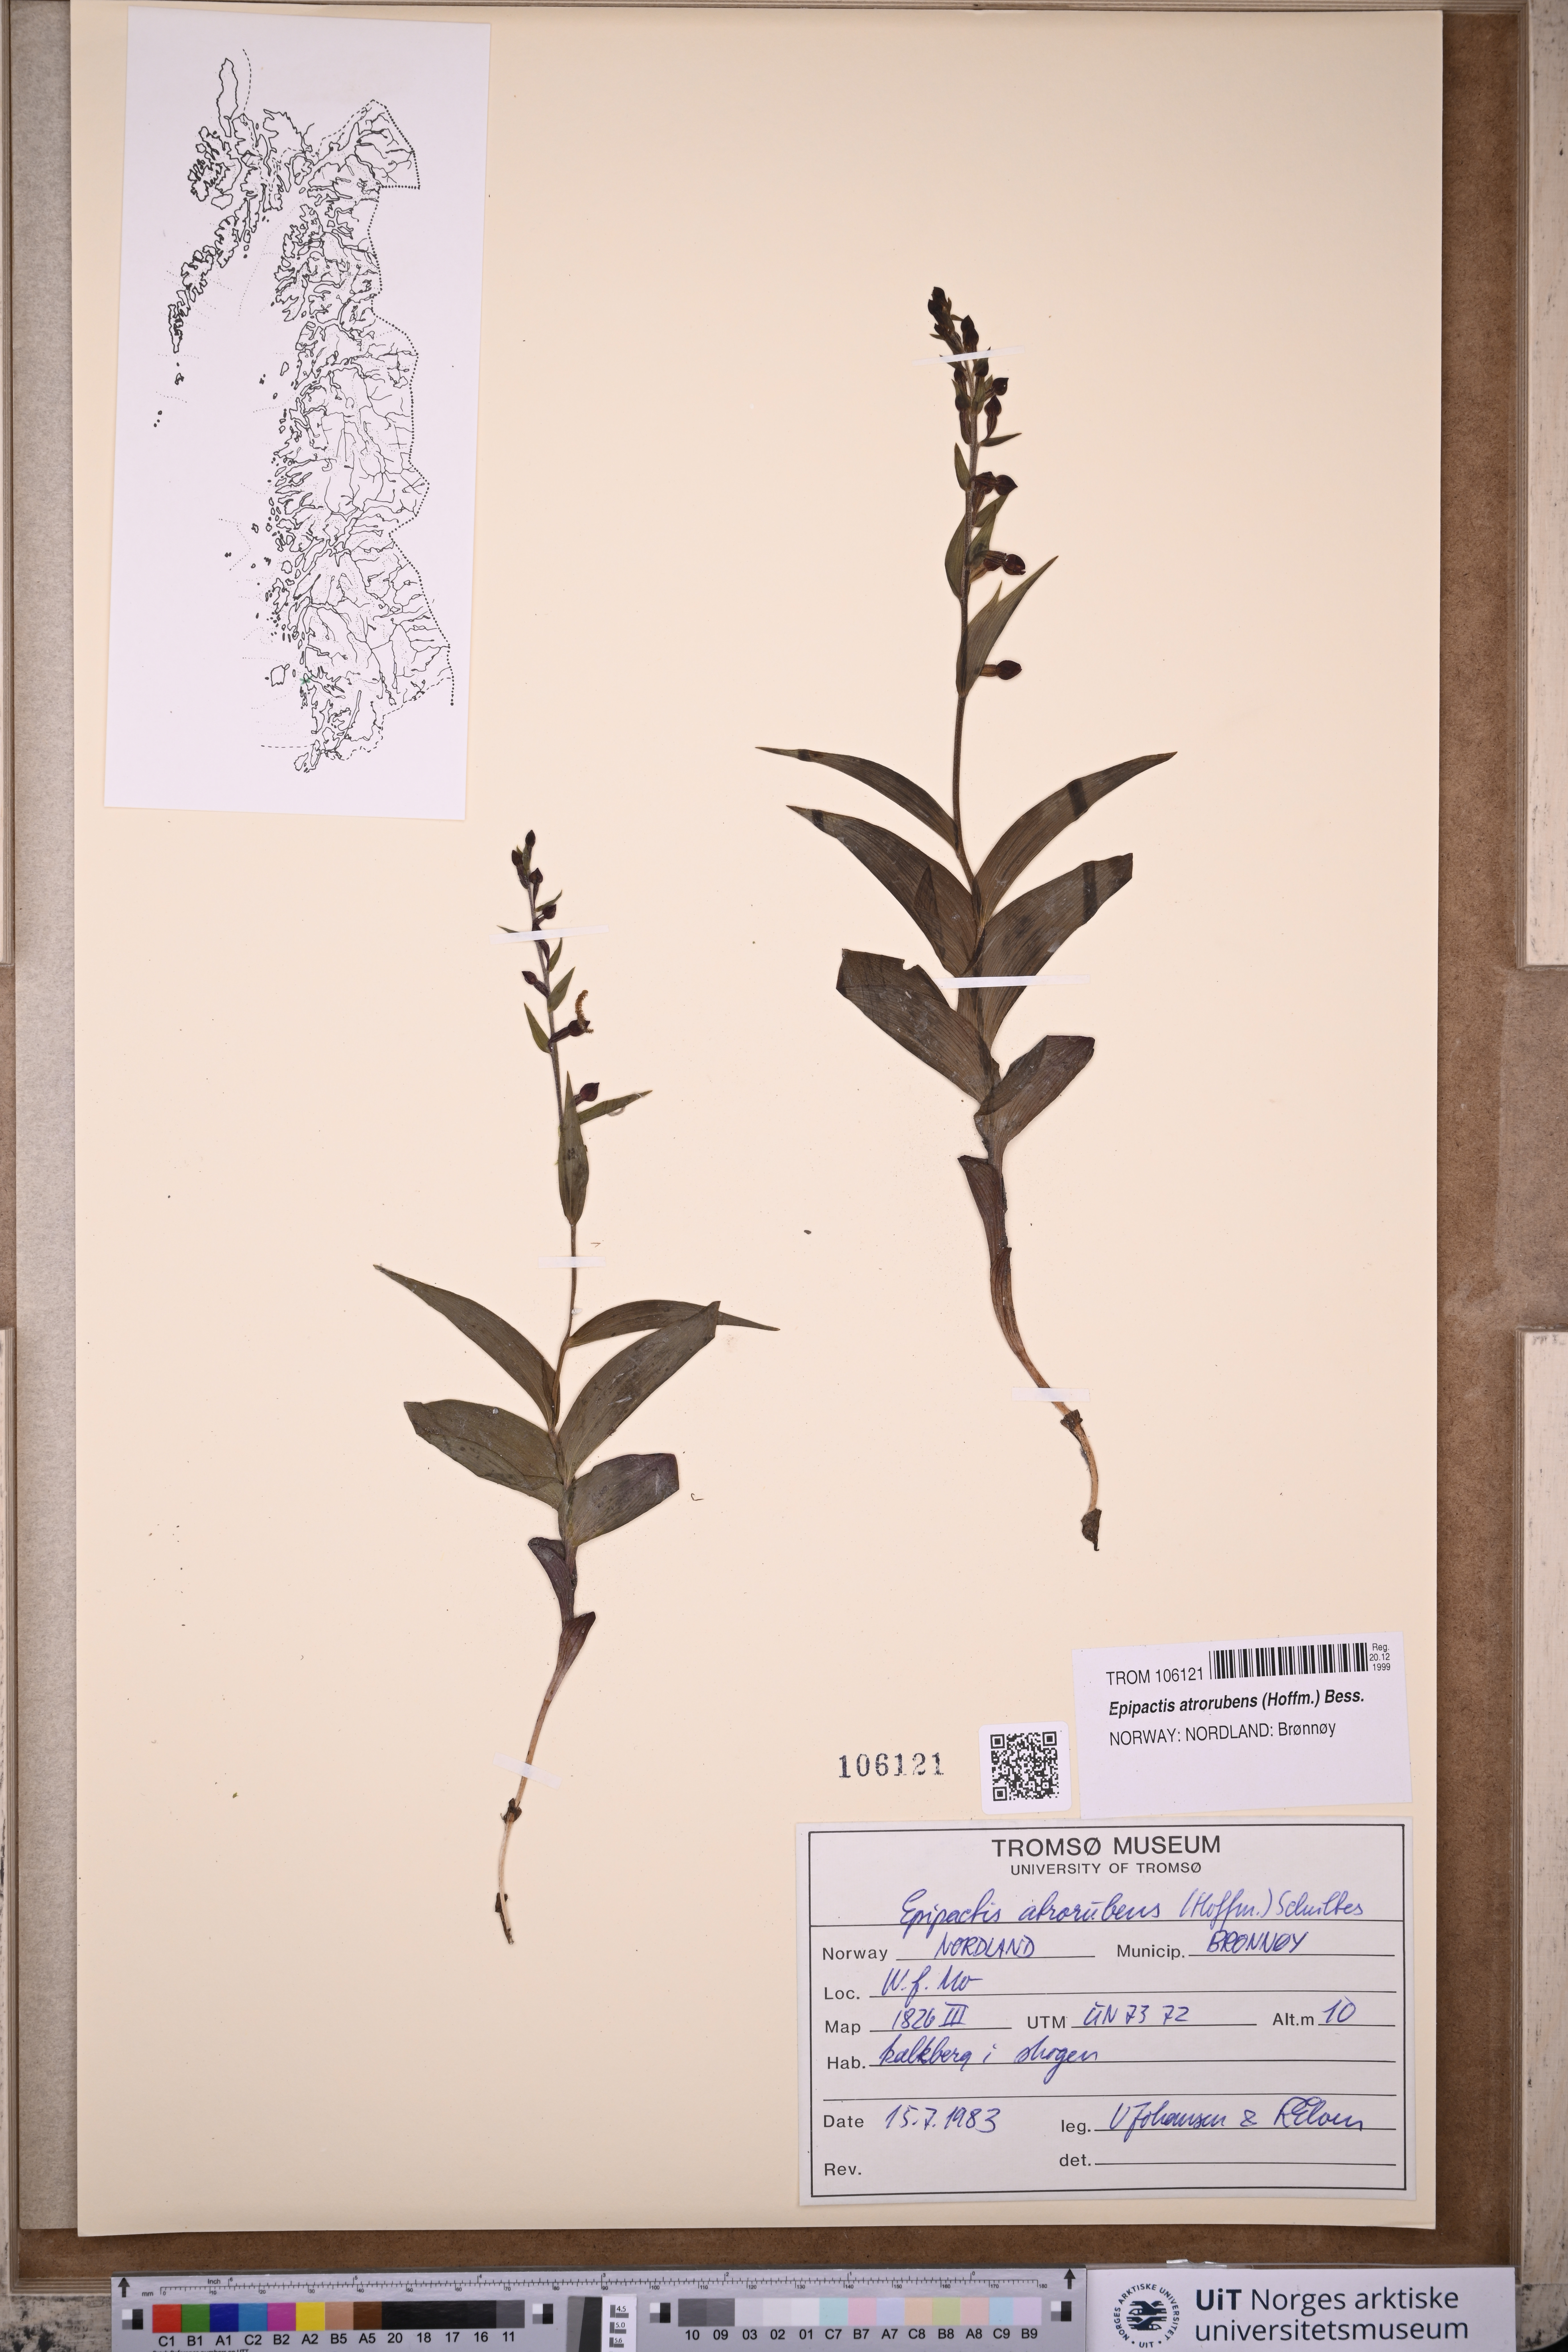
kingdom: Plantae
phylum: Tracheophyta
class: Liliopsida
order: Asparagales
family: Orchidaceae
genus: Epipactis
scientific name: Epipactis atrorubens
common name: Dark-red helleborine
